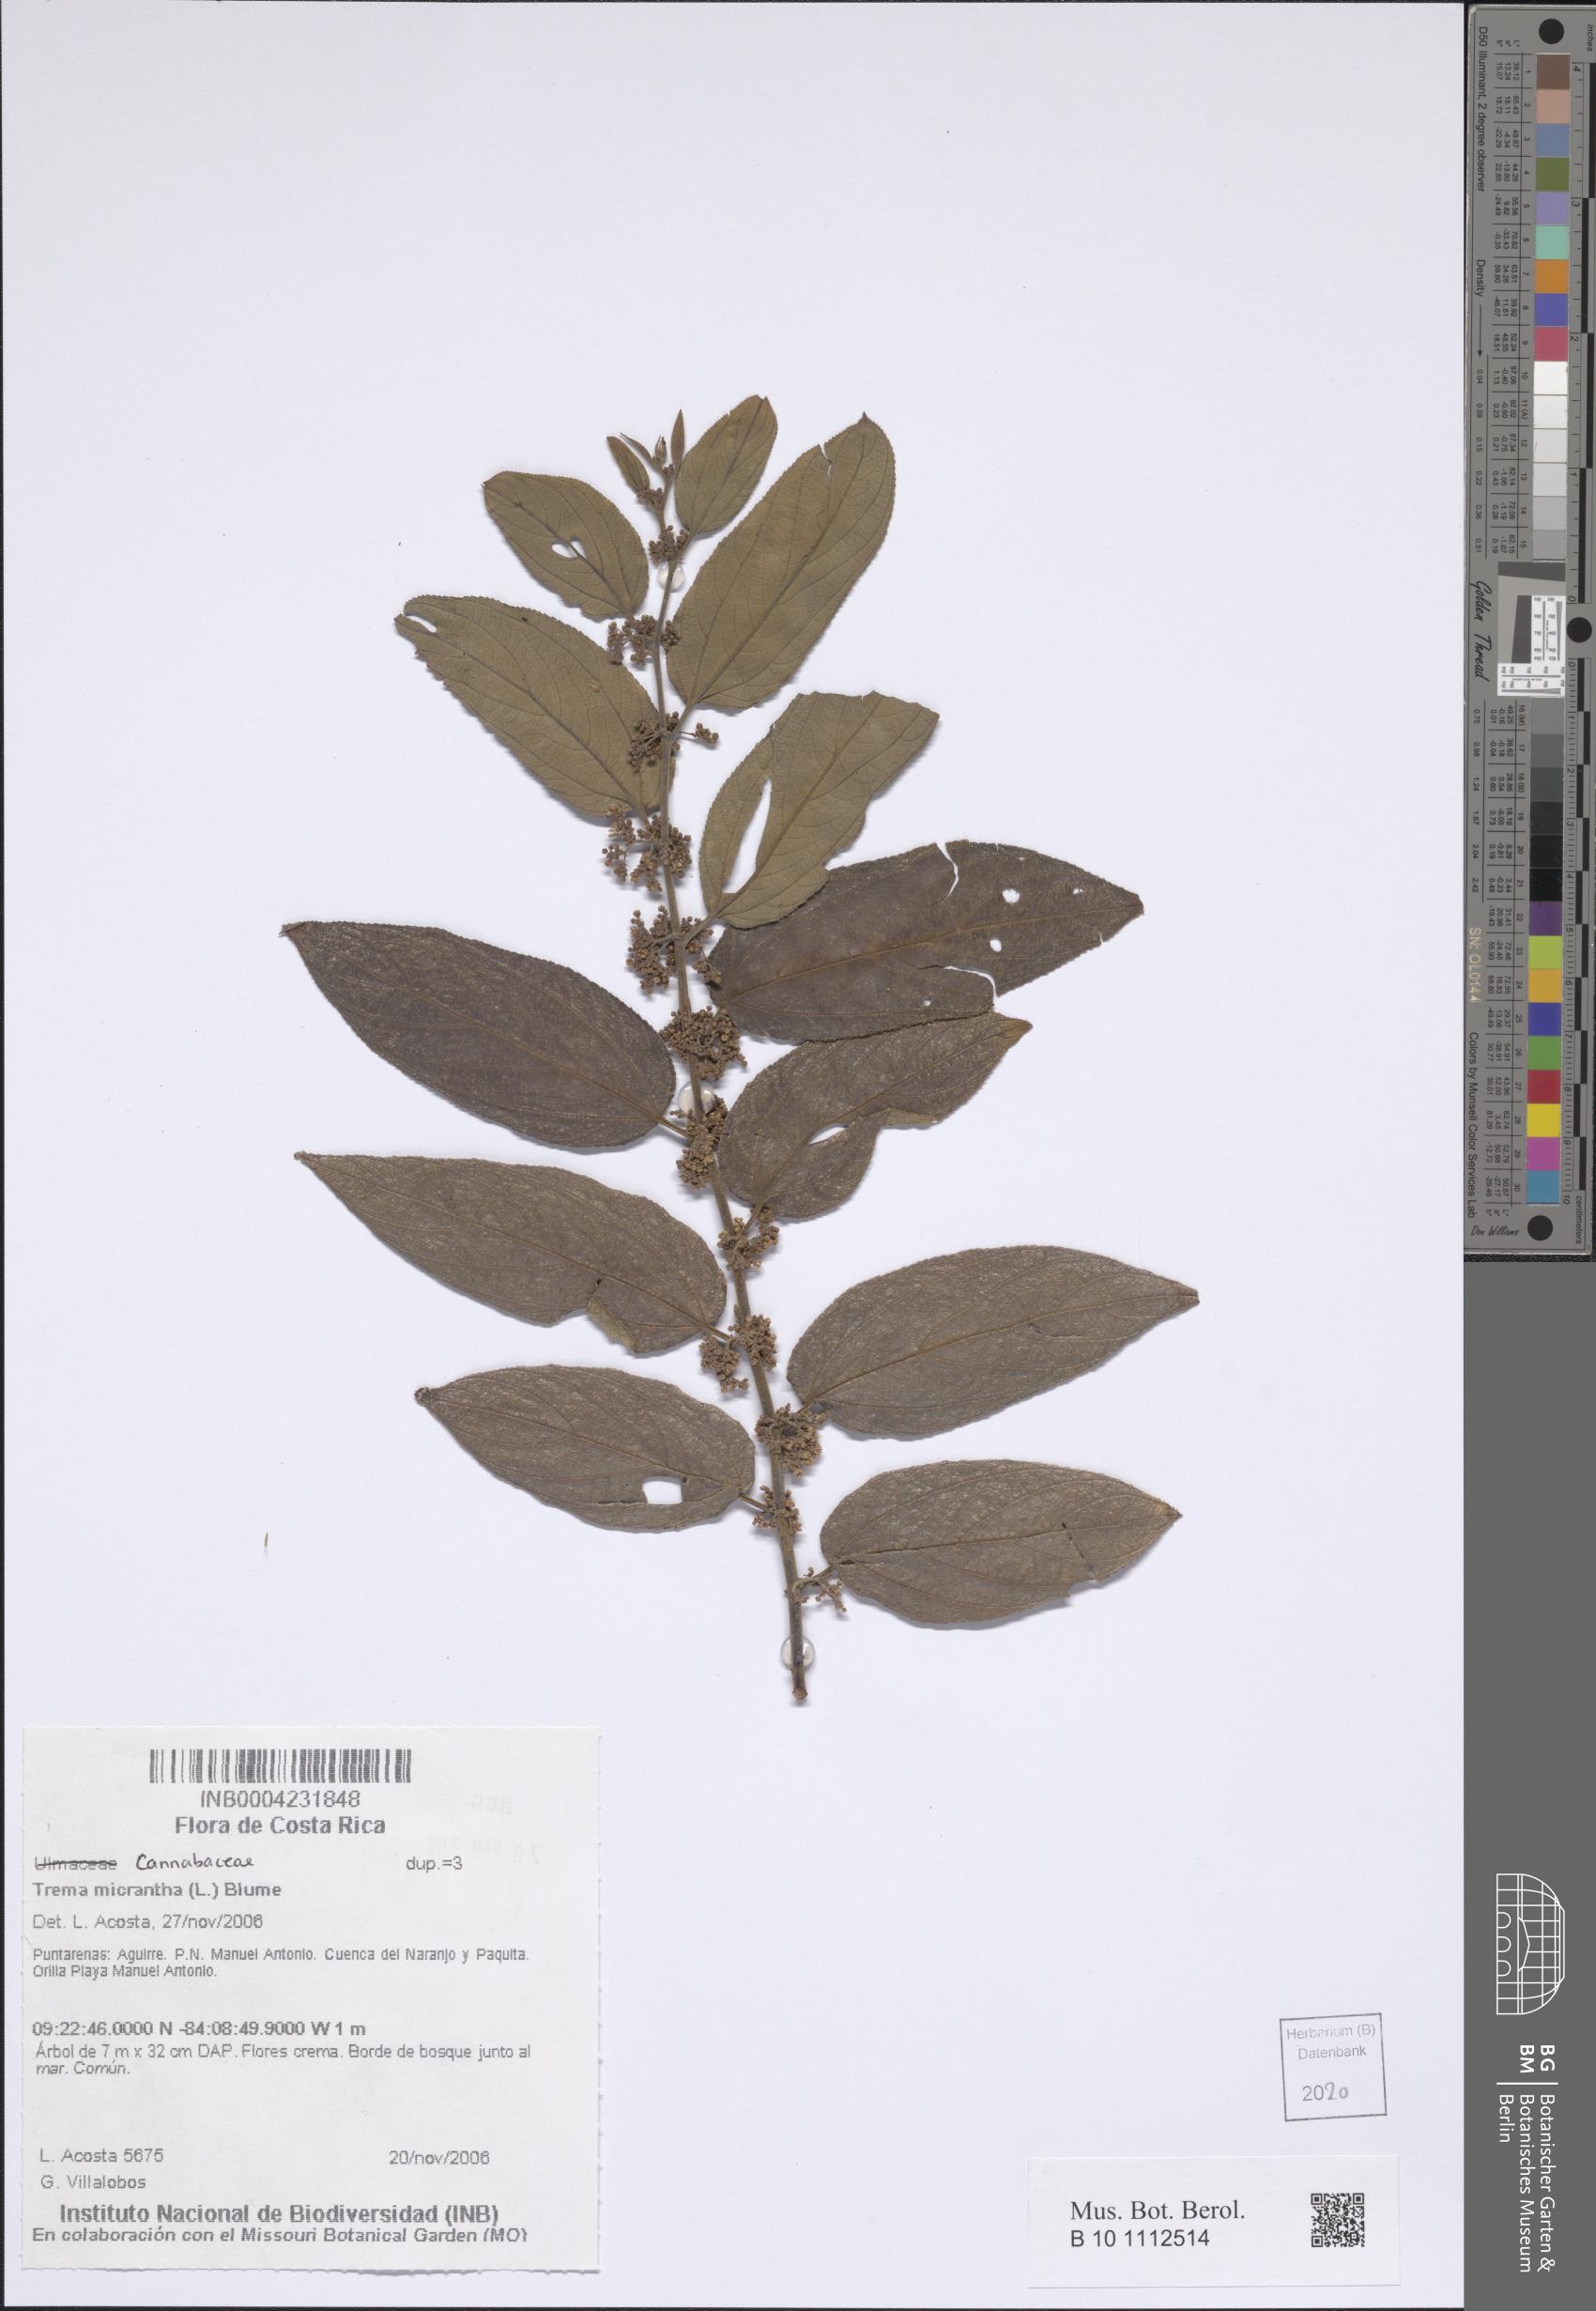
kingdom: Plantae
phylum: Tracheophyta
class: Magnoliopsida
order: Rosales
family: Cannabaceae
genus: Trema
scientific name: Trema micranthum
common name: Jamaican nettletree
